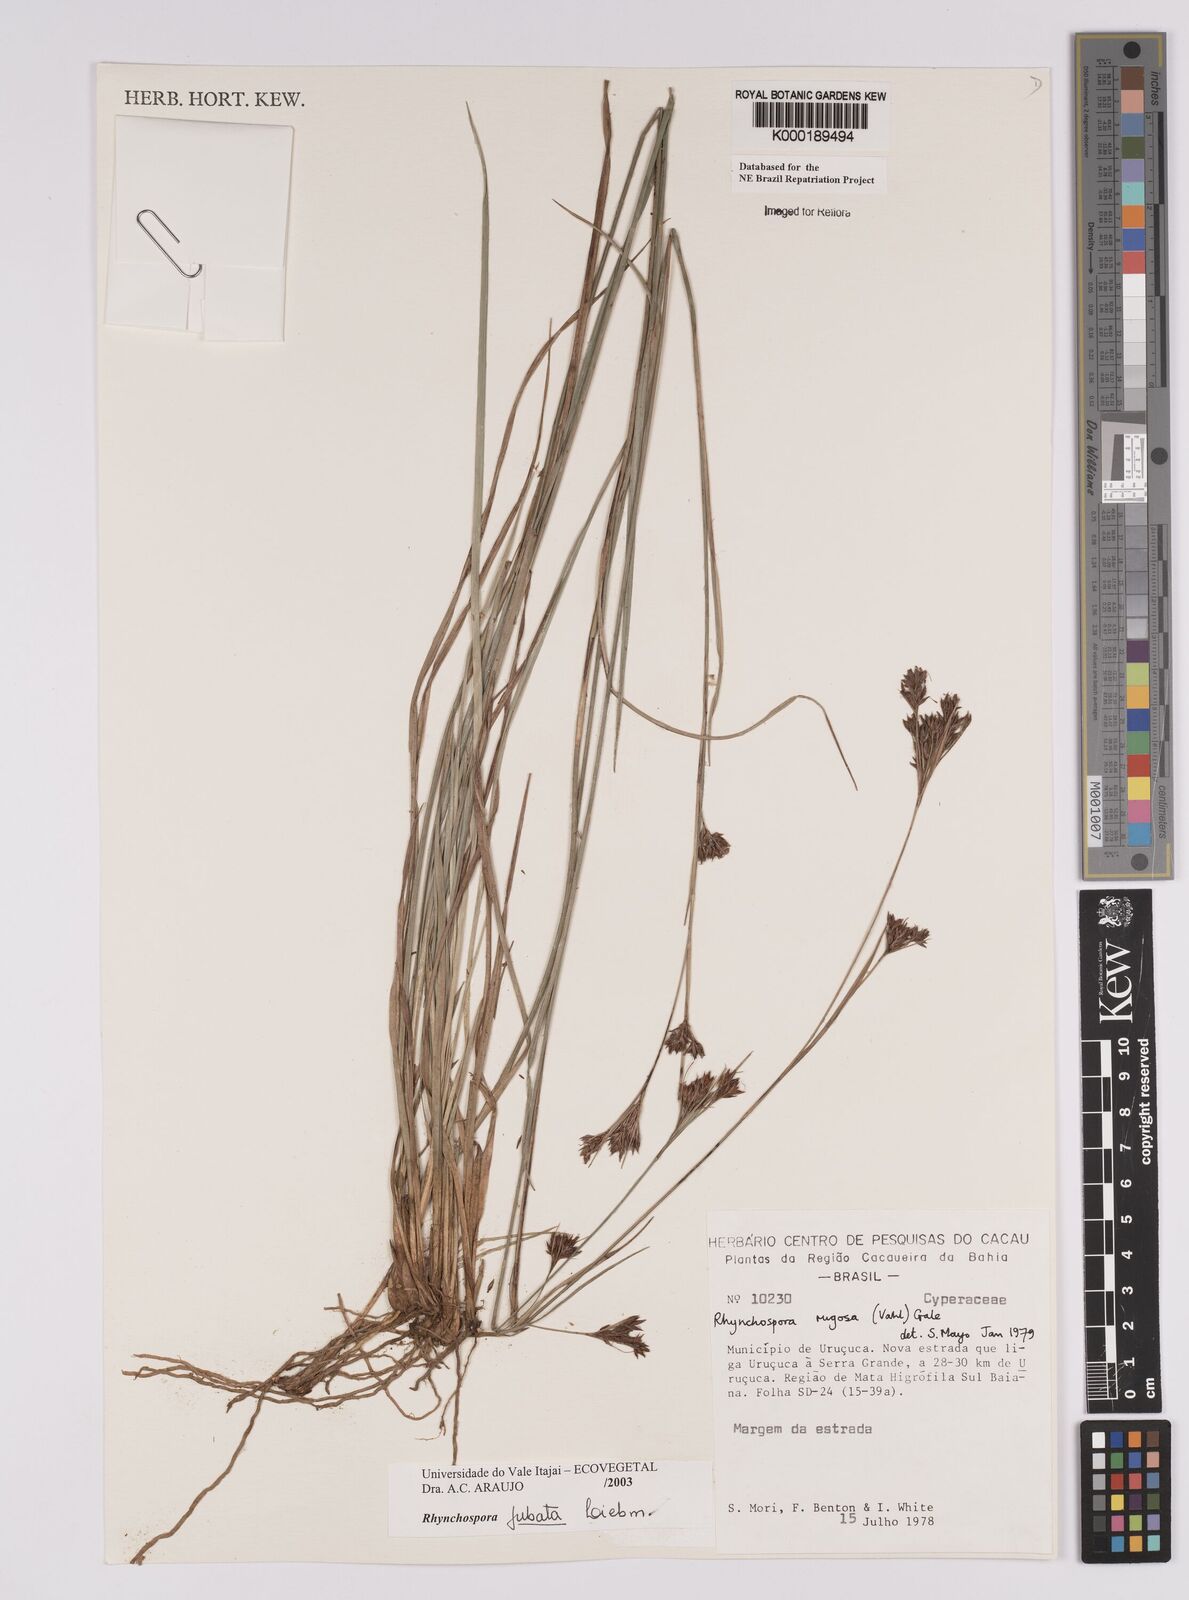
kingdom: Plantae
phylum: Tracheophyta
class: Liliopsida
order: Poales
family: Cyperaceae
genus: Rhynchospora
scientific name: Rhynchospora jubata
